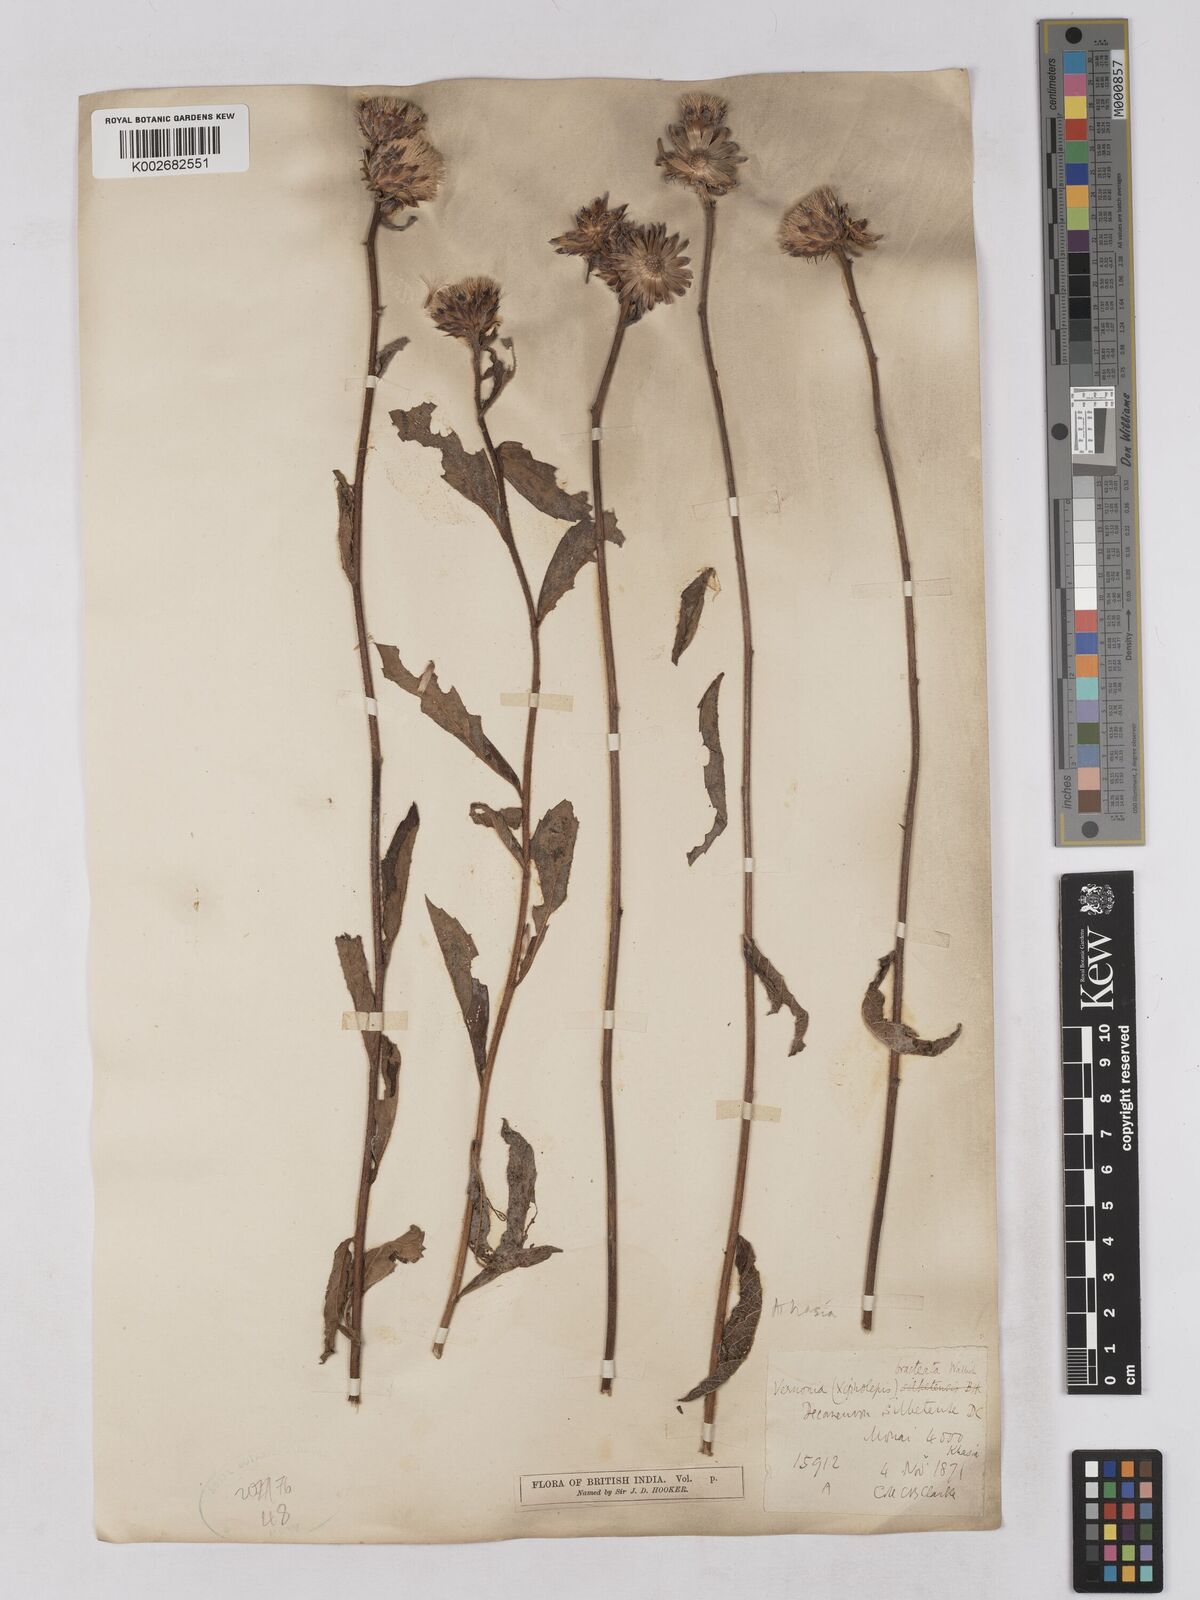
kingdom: Plantae
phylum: Tracheophyta
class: Magnoliopsida
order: Asterales
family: Asteraceae
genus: Acilepis
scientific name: Acilepis silhetensis
